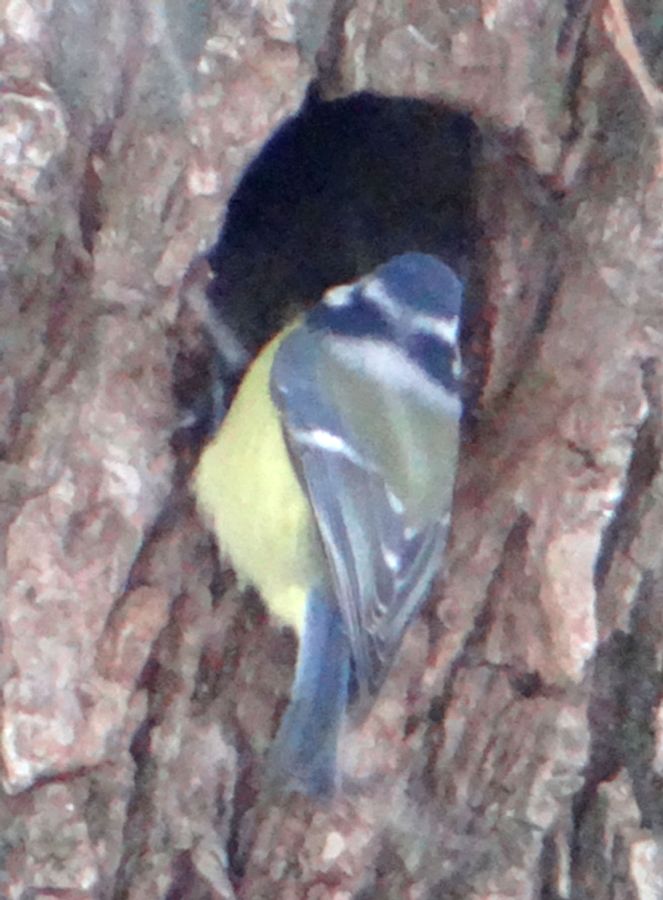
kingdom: Animalia
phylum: Chordata
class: Aves
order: Passeriformes
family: Paridae
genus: Cyanistes
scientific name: Cyanistes caeruleus
